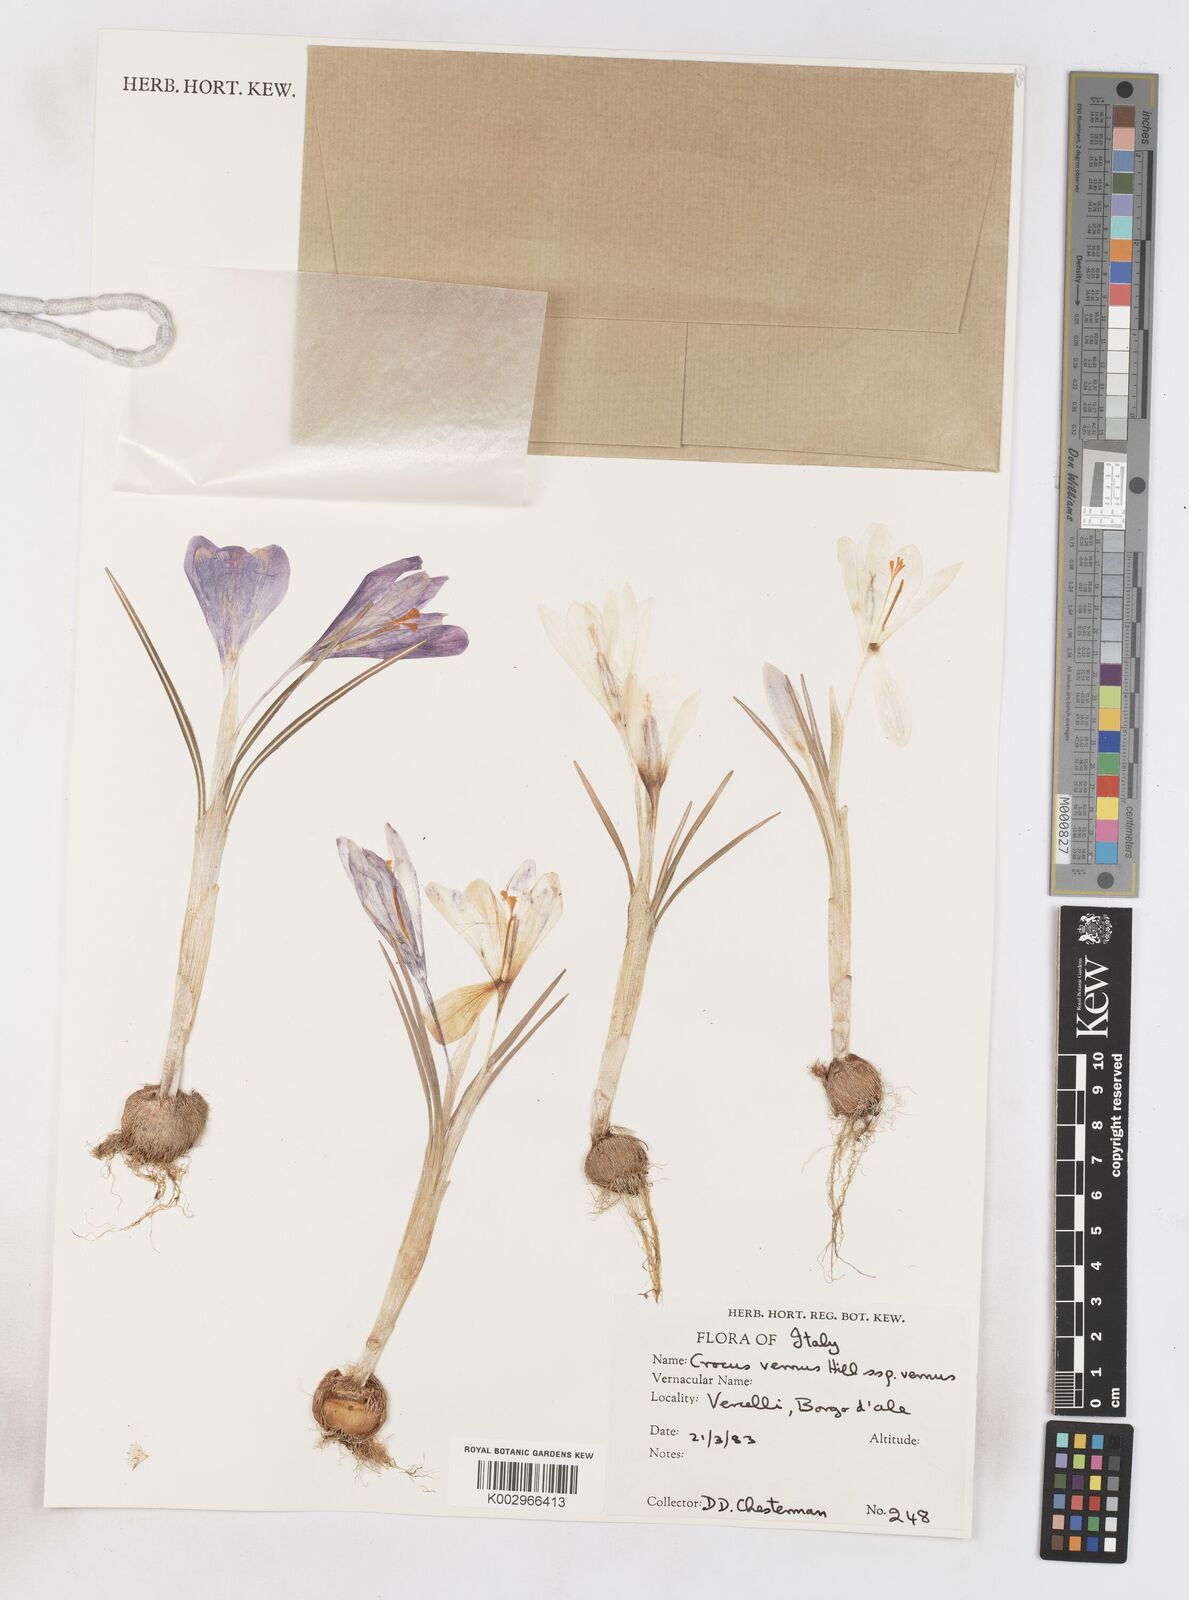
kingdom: Plantae
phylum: Tracheophyta
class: Liliopsida
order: Asparagales
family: Iridaceae
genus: Crocus
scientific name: Crocus vernus
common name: Spring crocus
